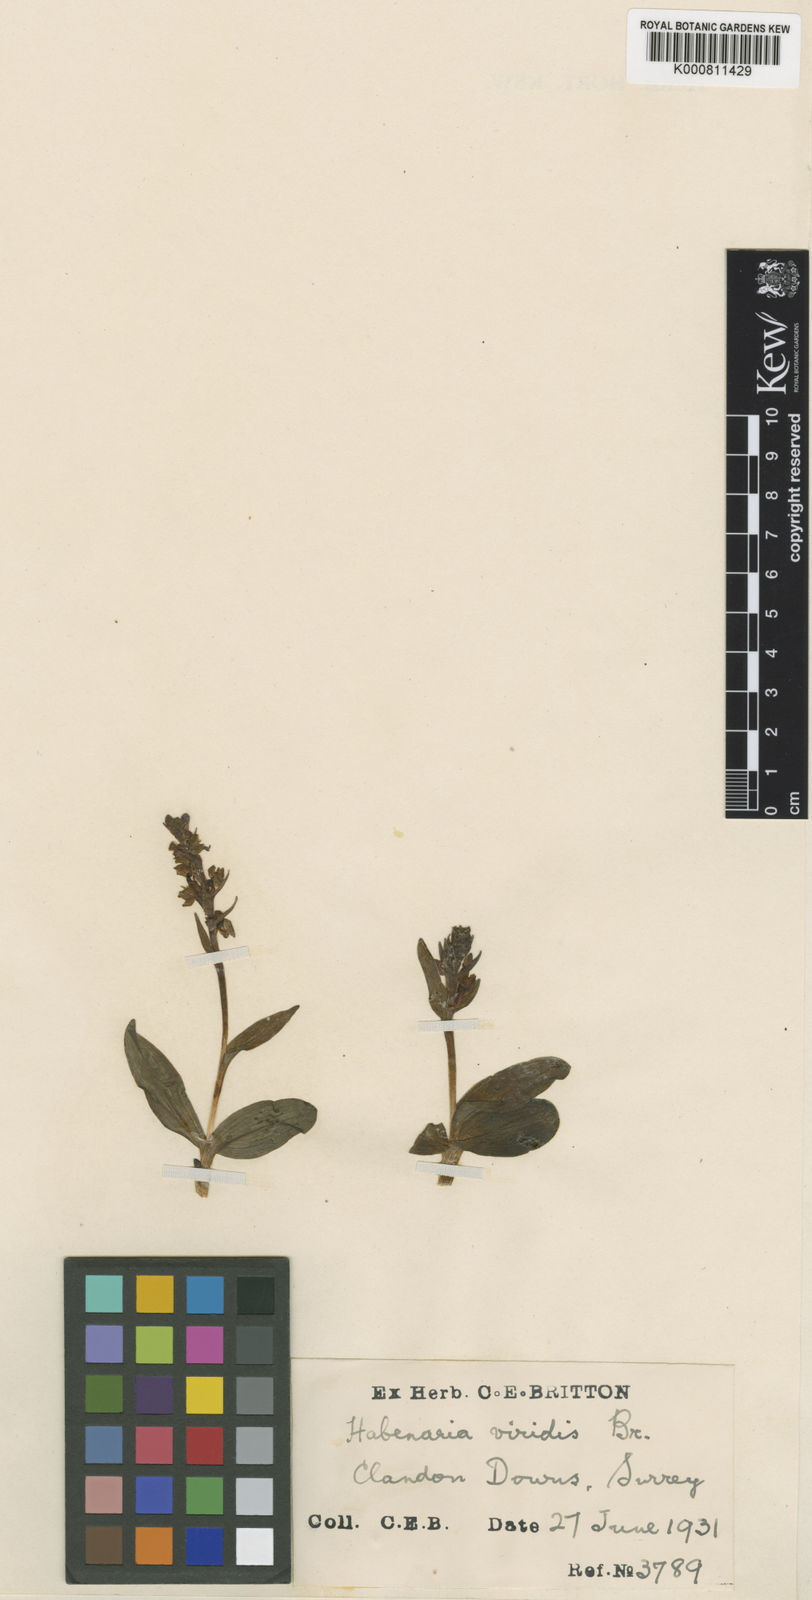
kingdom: Plantae
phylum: Tracheophyta
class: Liliopsida
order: Asparagales
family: Orchidaceae
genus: Dactylorhiza
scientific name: Dactylorhiza viridis
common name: Longbract frog orchid
